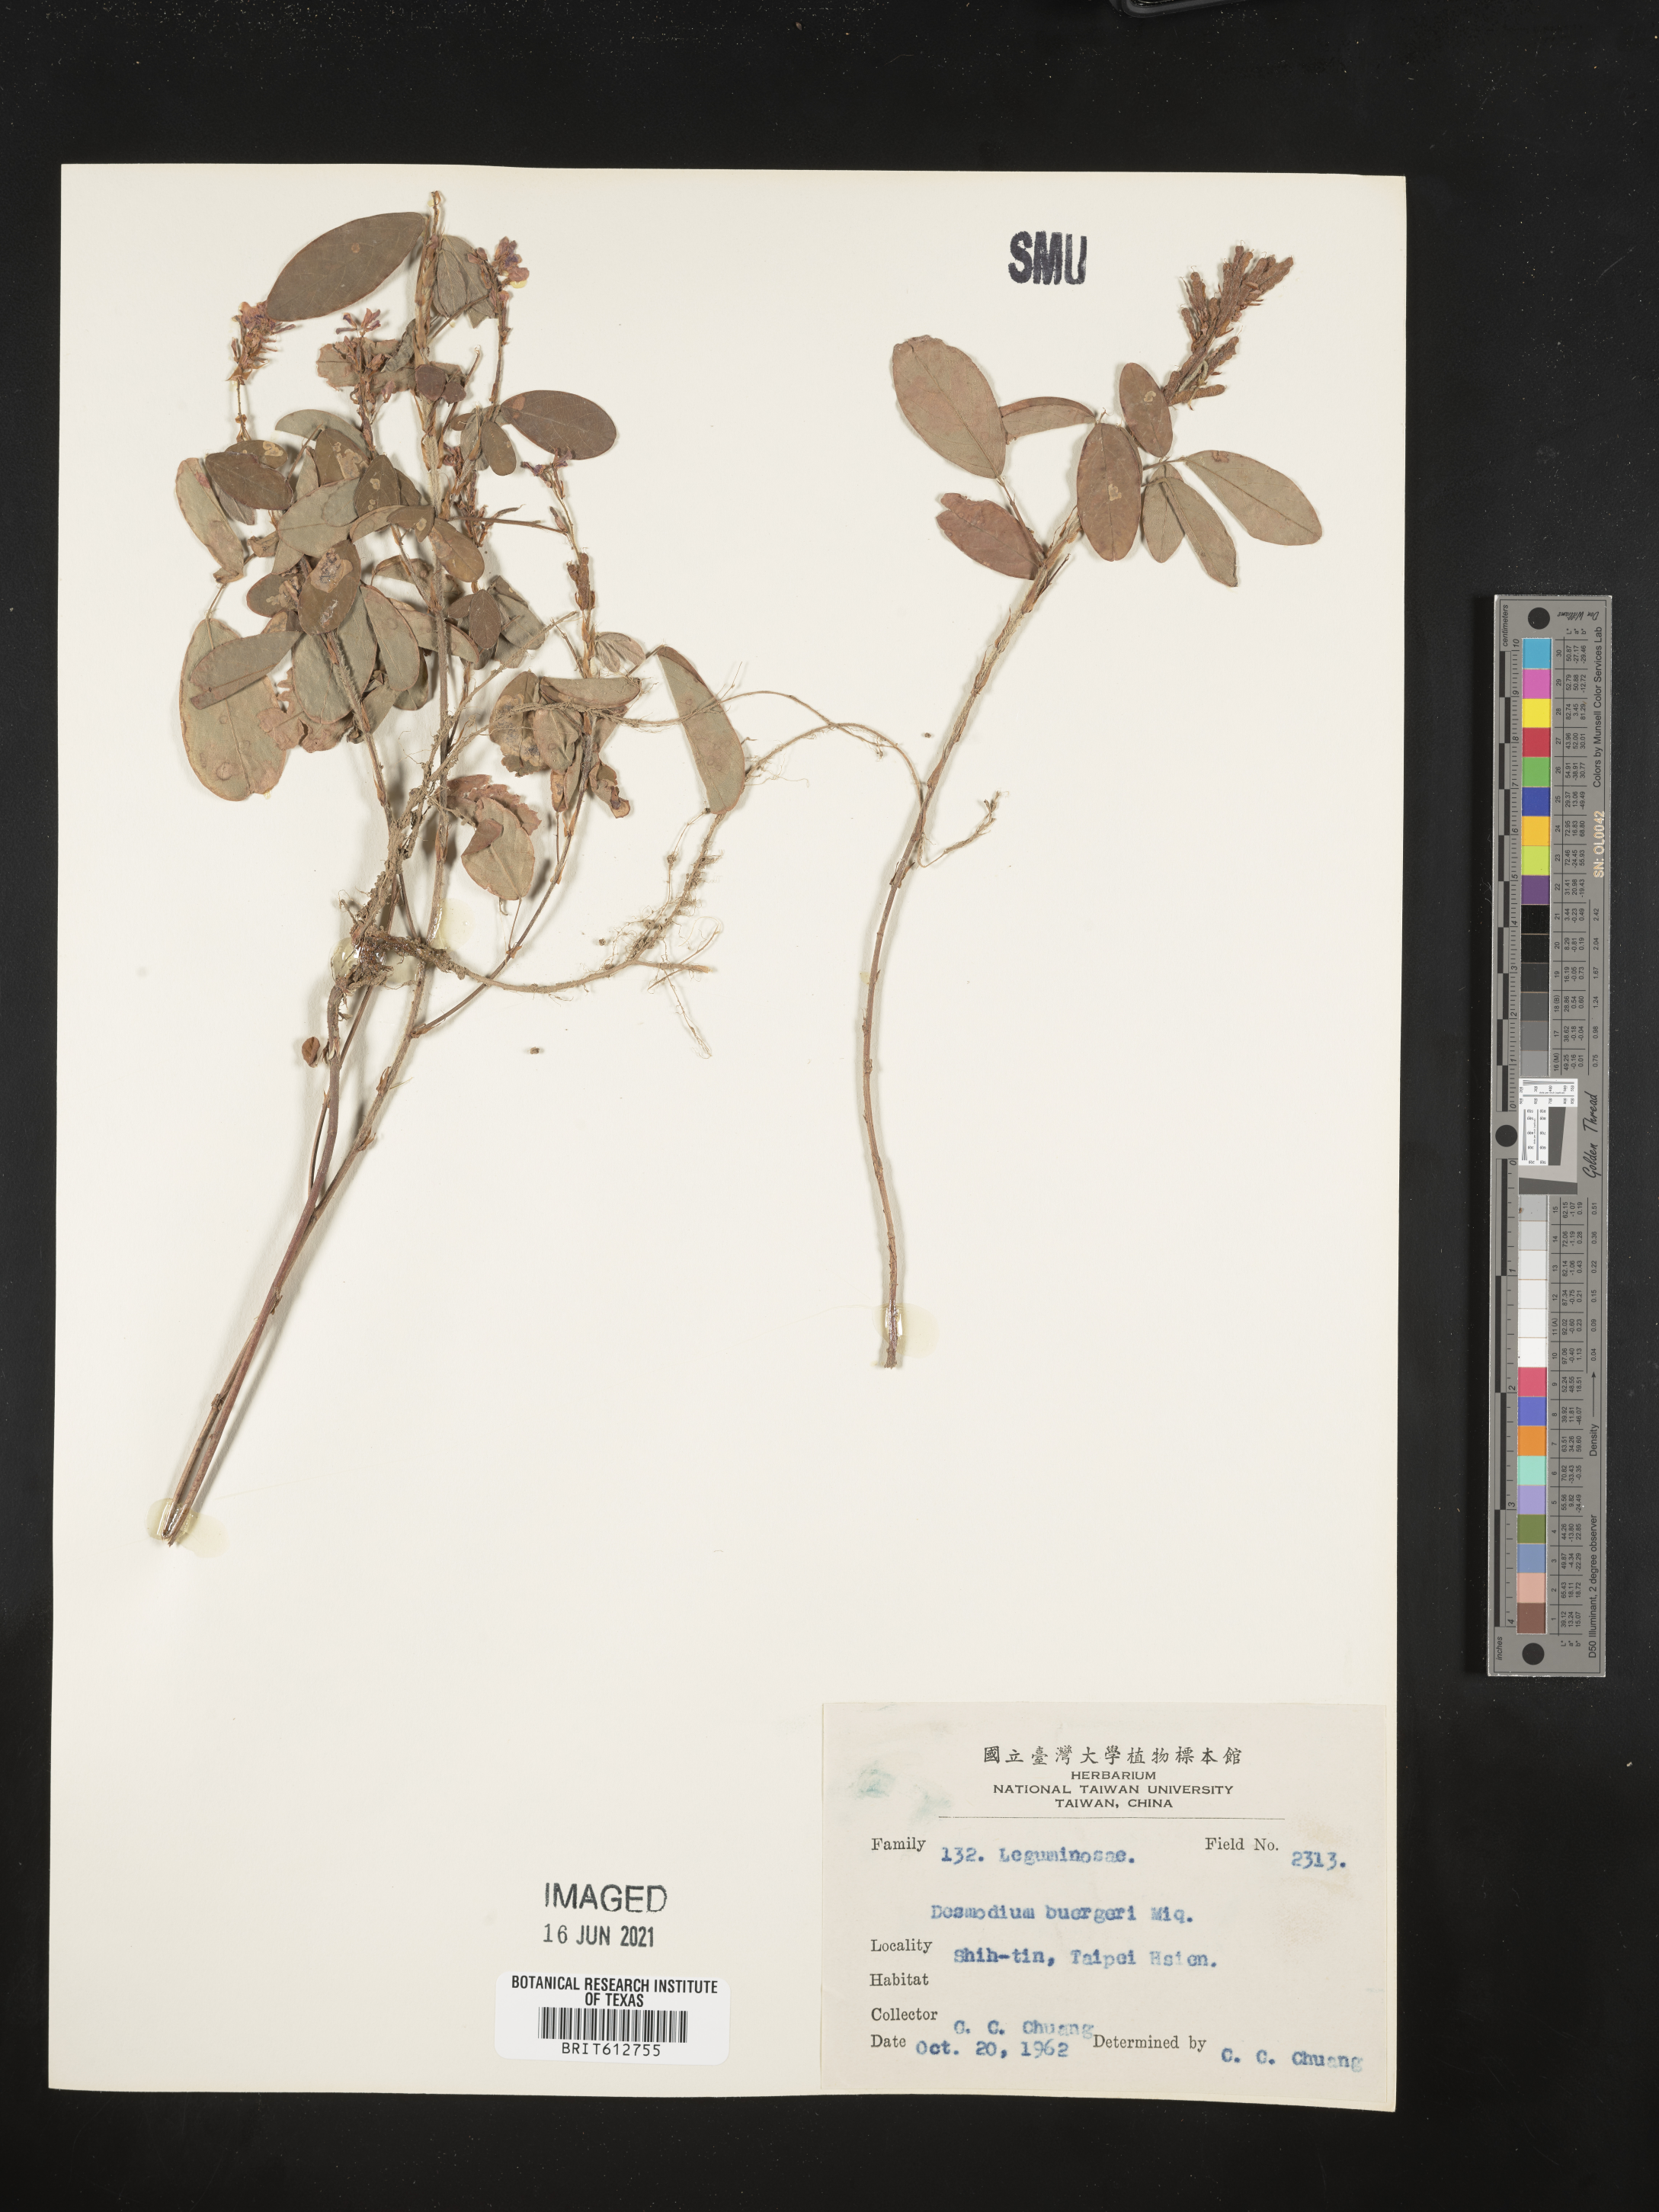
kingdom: Plantae
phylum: Tracheophyta
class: Magnoliopsida
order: Fabales
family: Fabaceae
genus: Grona
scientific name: Grona heterocarpos
